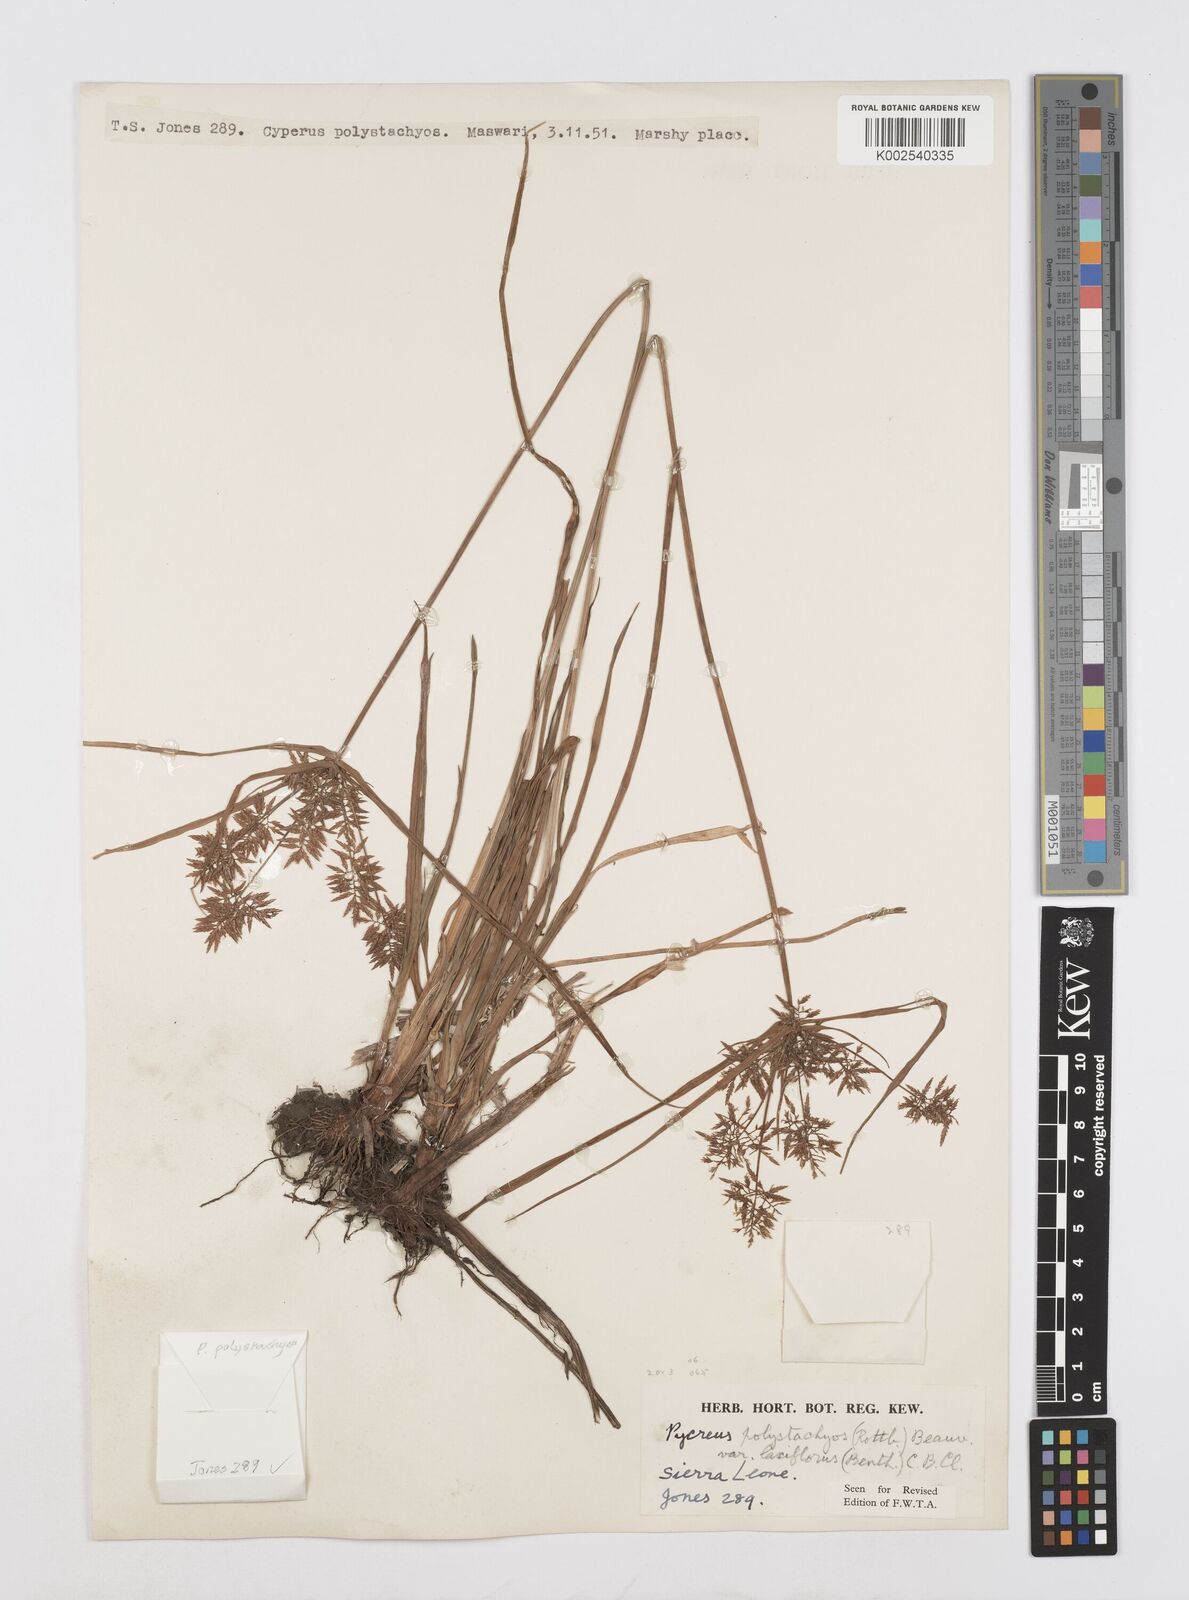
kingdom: Plantae
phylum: Tracheophyta
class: Liliopsida
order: Poales
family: Cyperaceae
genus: Cyperus
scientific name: Cyperus polystachyos
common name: Bunchy flat sedge
